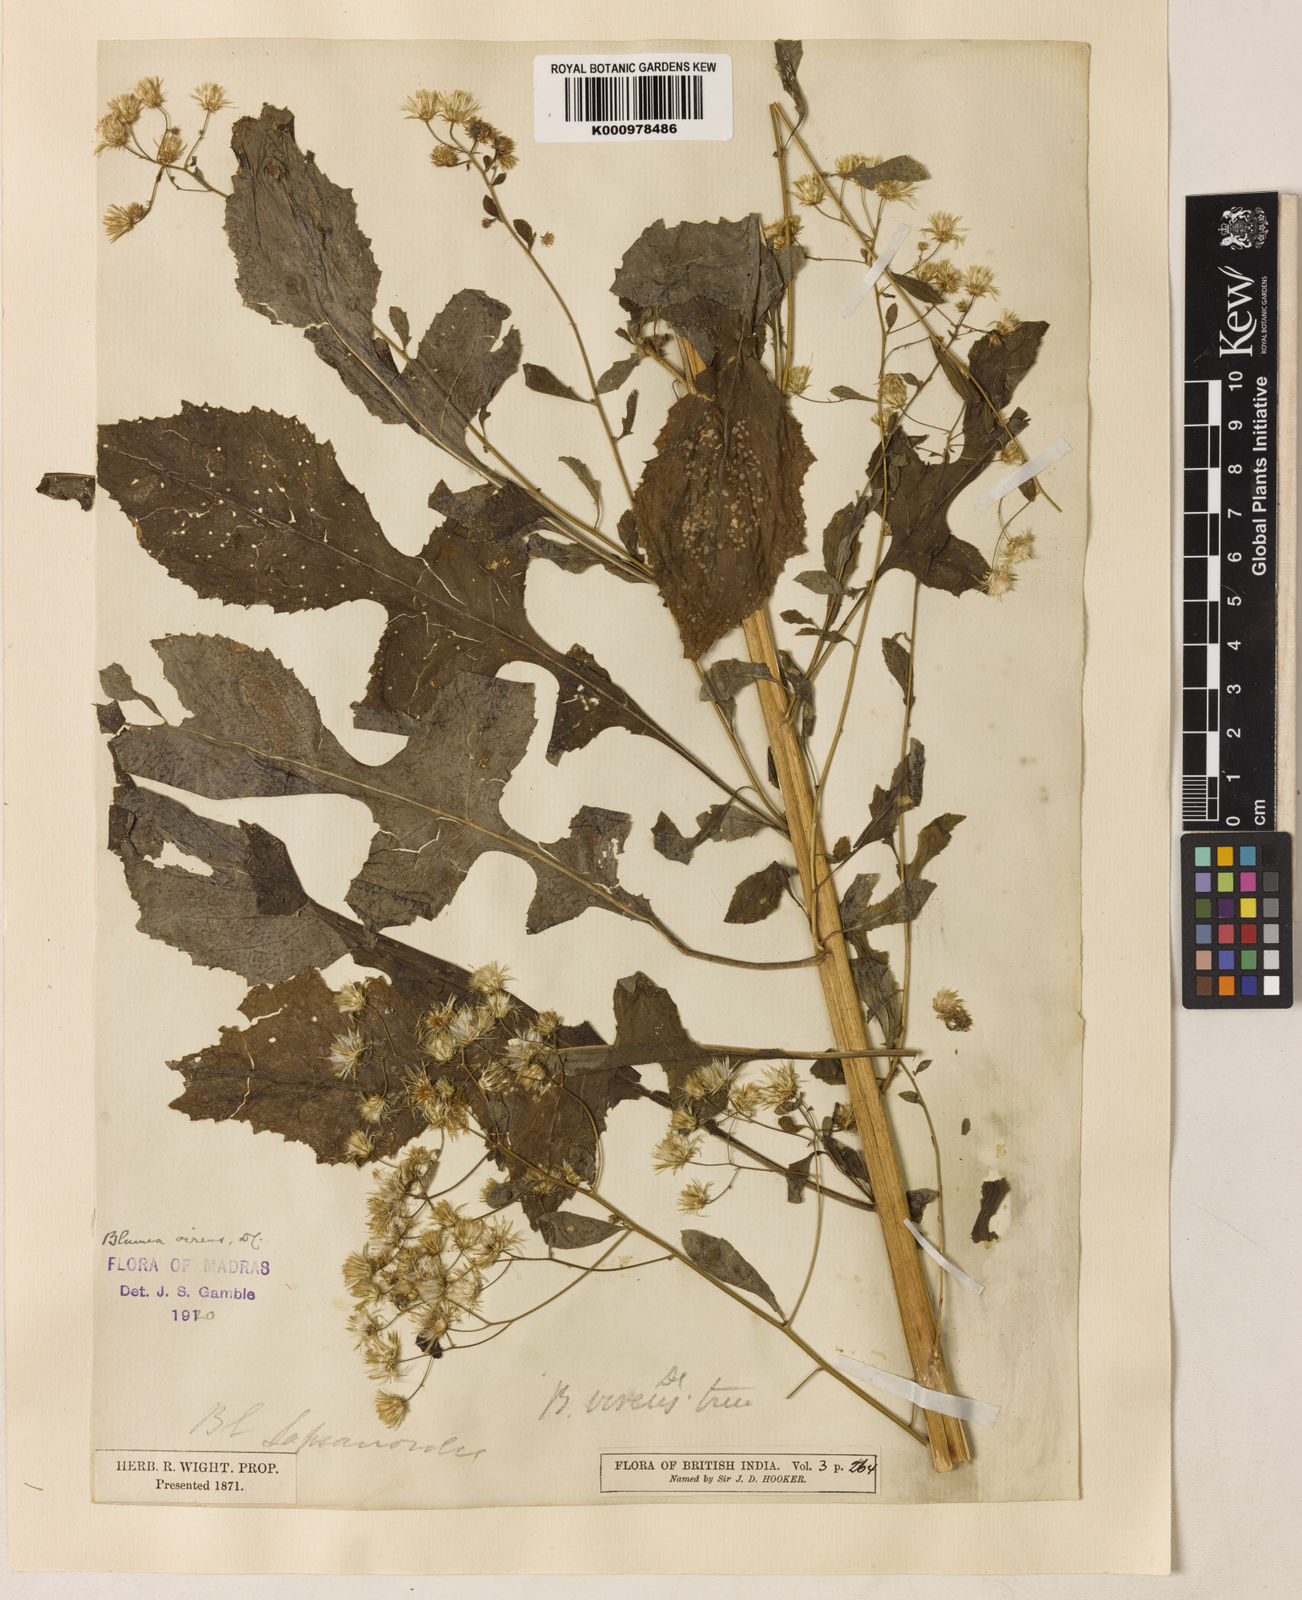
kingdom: Plantae
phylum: Tracheophyta
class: Magnoliopsida
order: Asterales
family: Asteraceae
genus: Blumea
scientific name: Blumea virens
